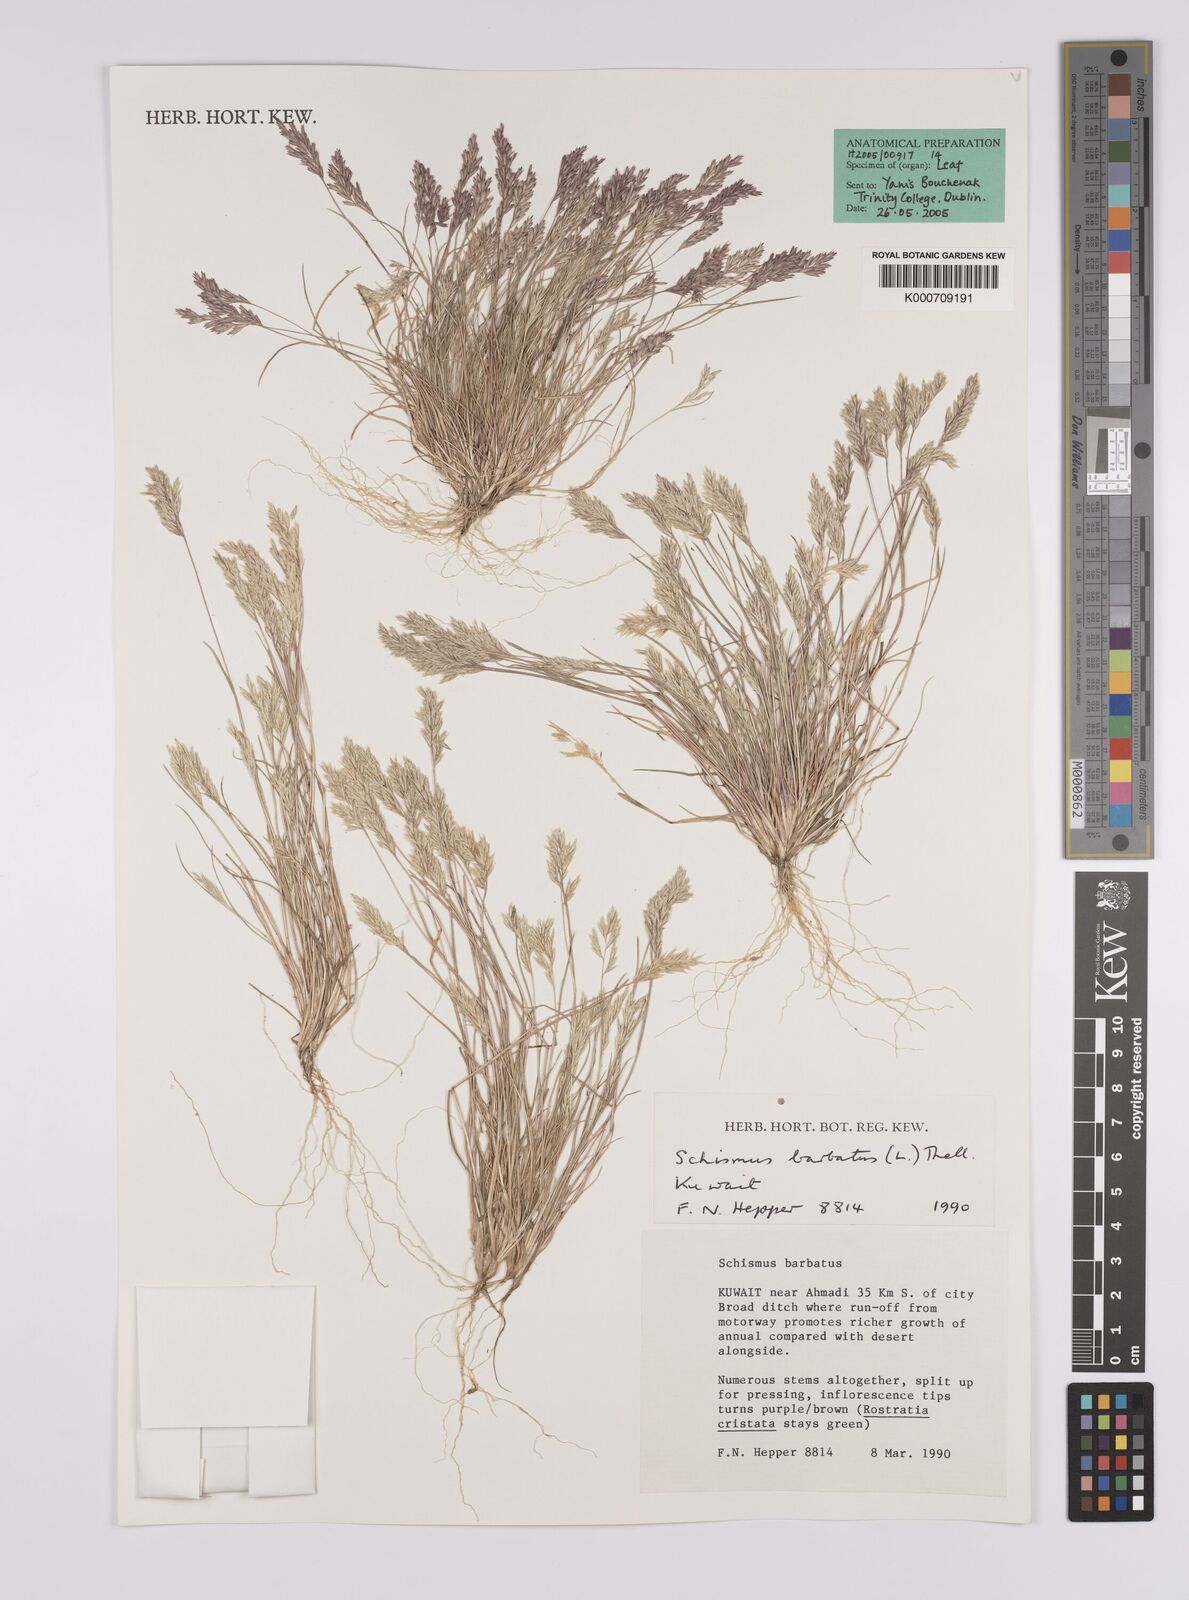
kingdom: Plantae
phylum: Tracheophyta
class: Liliopsida
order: Poales
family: Poaceae
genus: Schismus
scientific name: Schismus barbatus
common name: Kelch-grass
